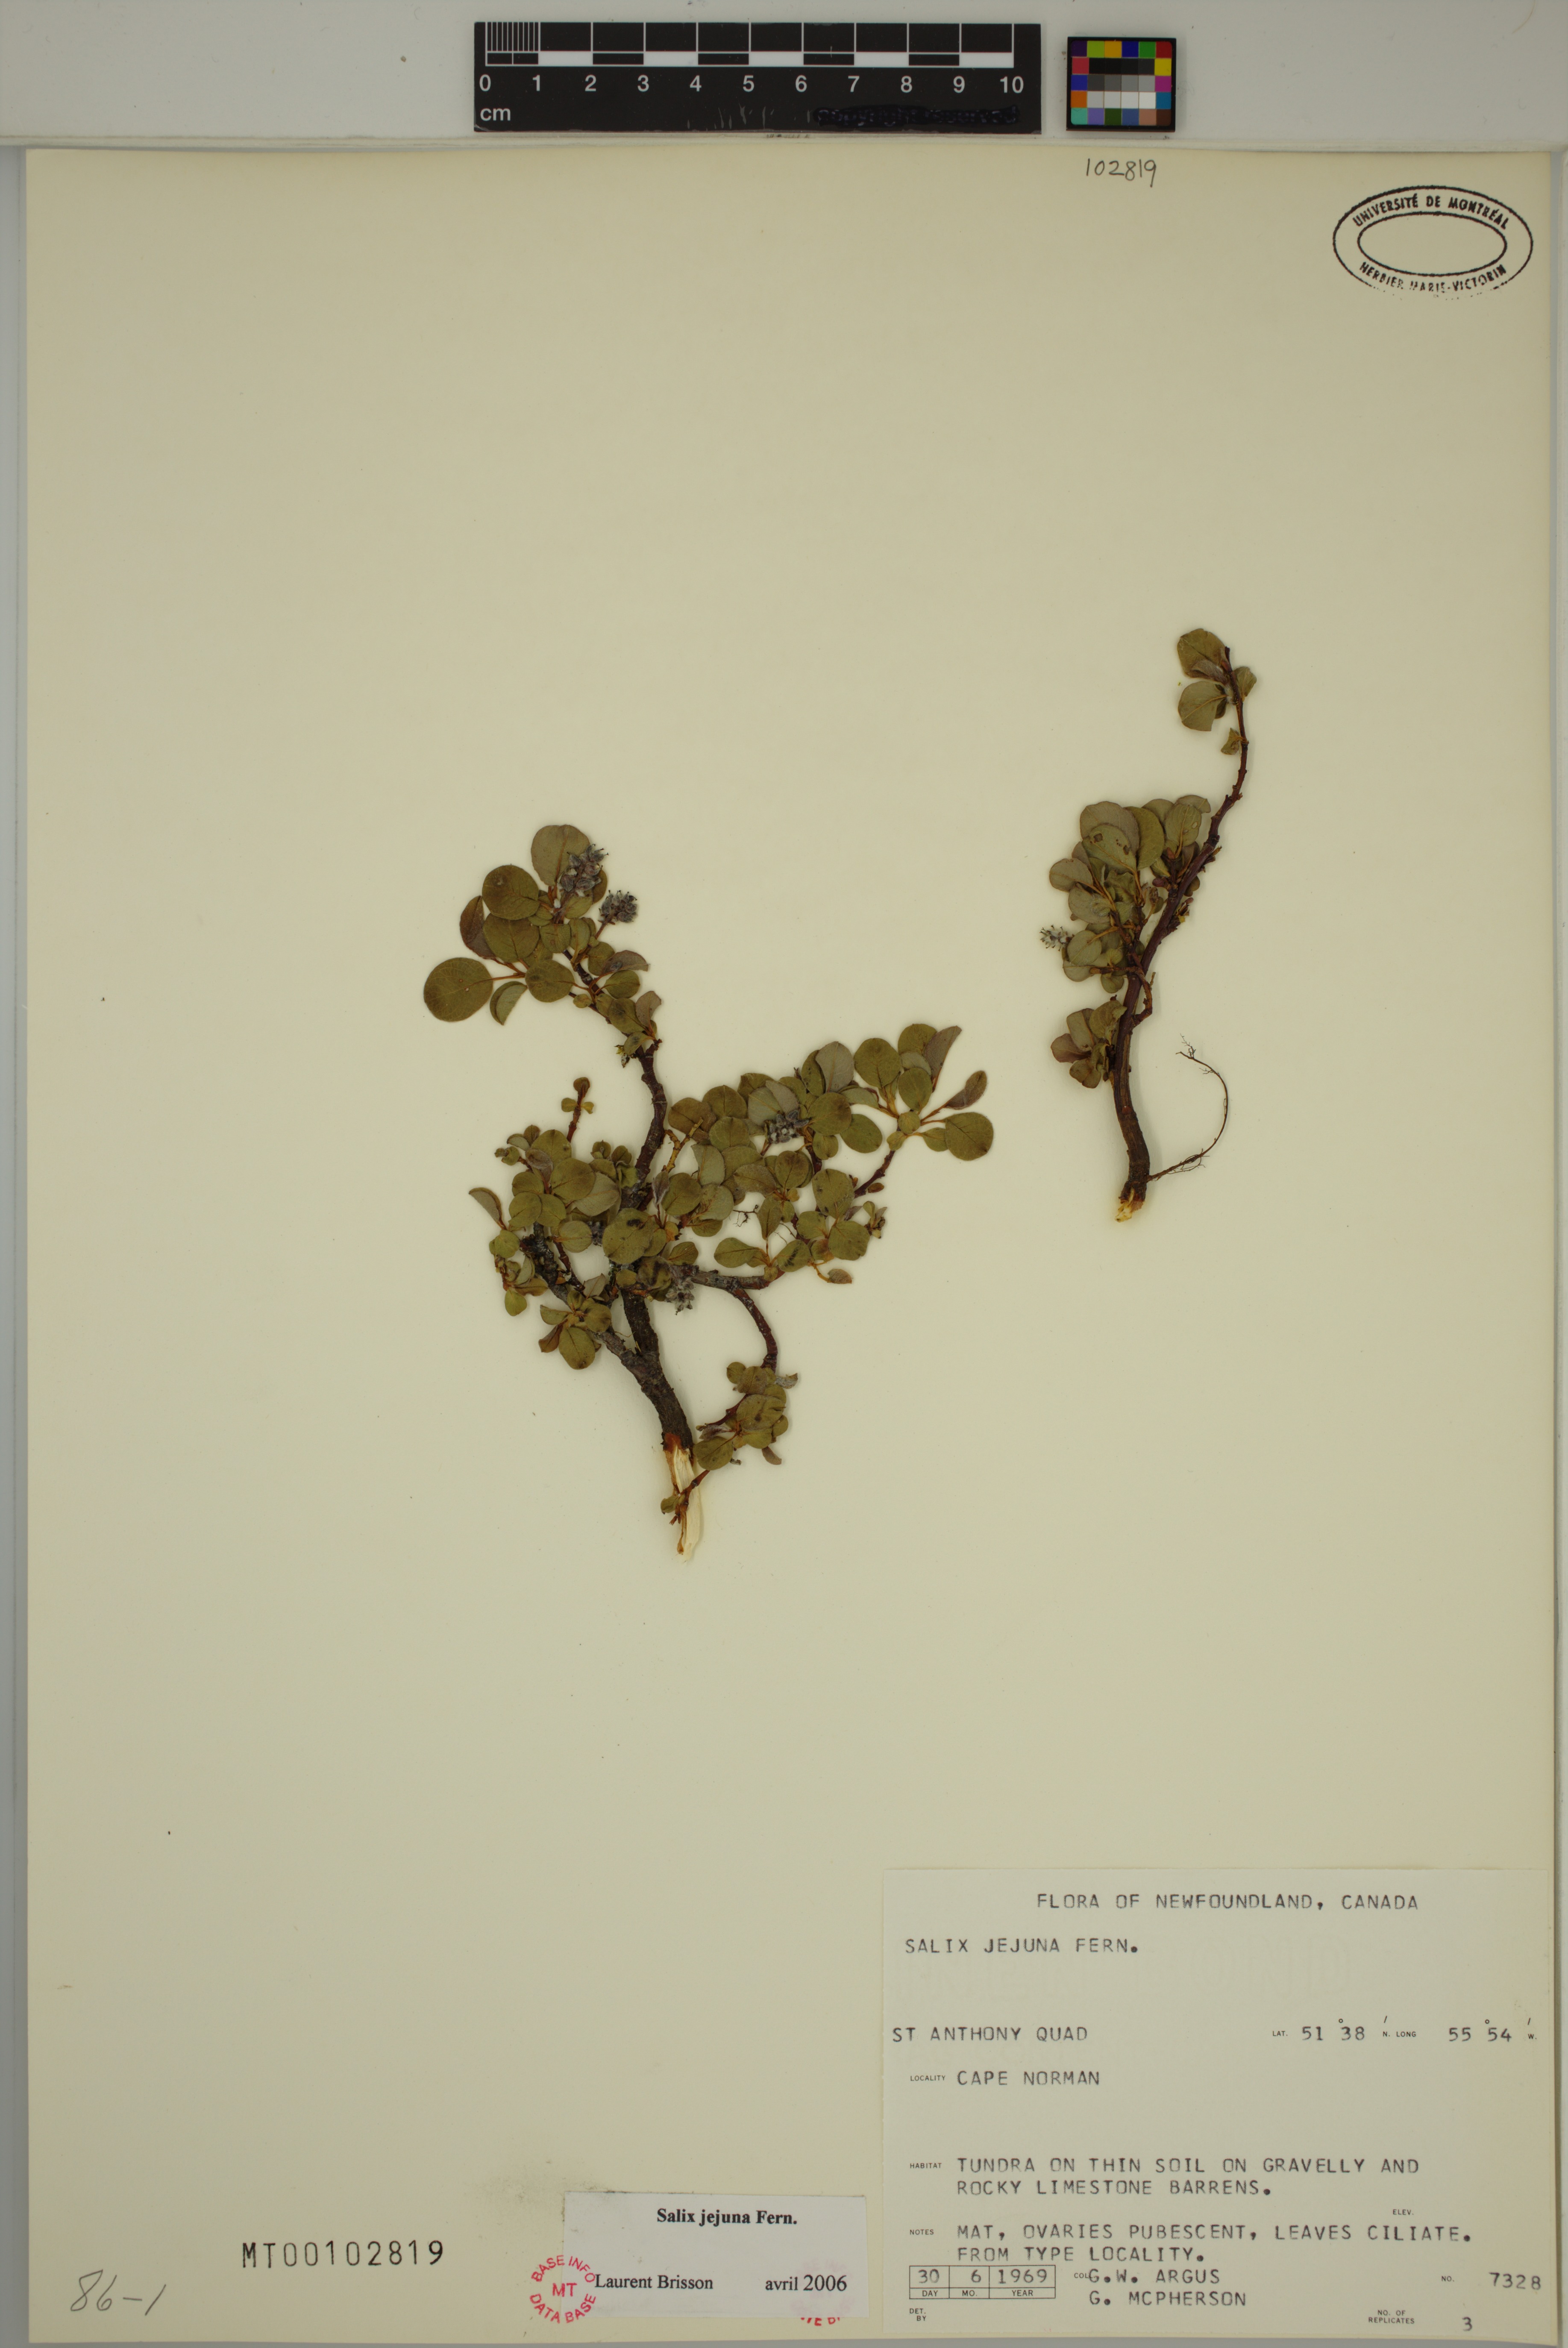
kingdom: Plantae
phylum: Tracheophyta
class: Magnoliopsida
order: Malpighiales
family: Salicaceae
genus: Salix
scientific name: Salix jejuna
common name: Belle isle dwarf willow
